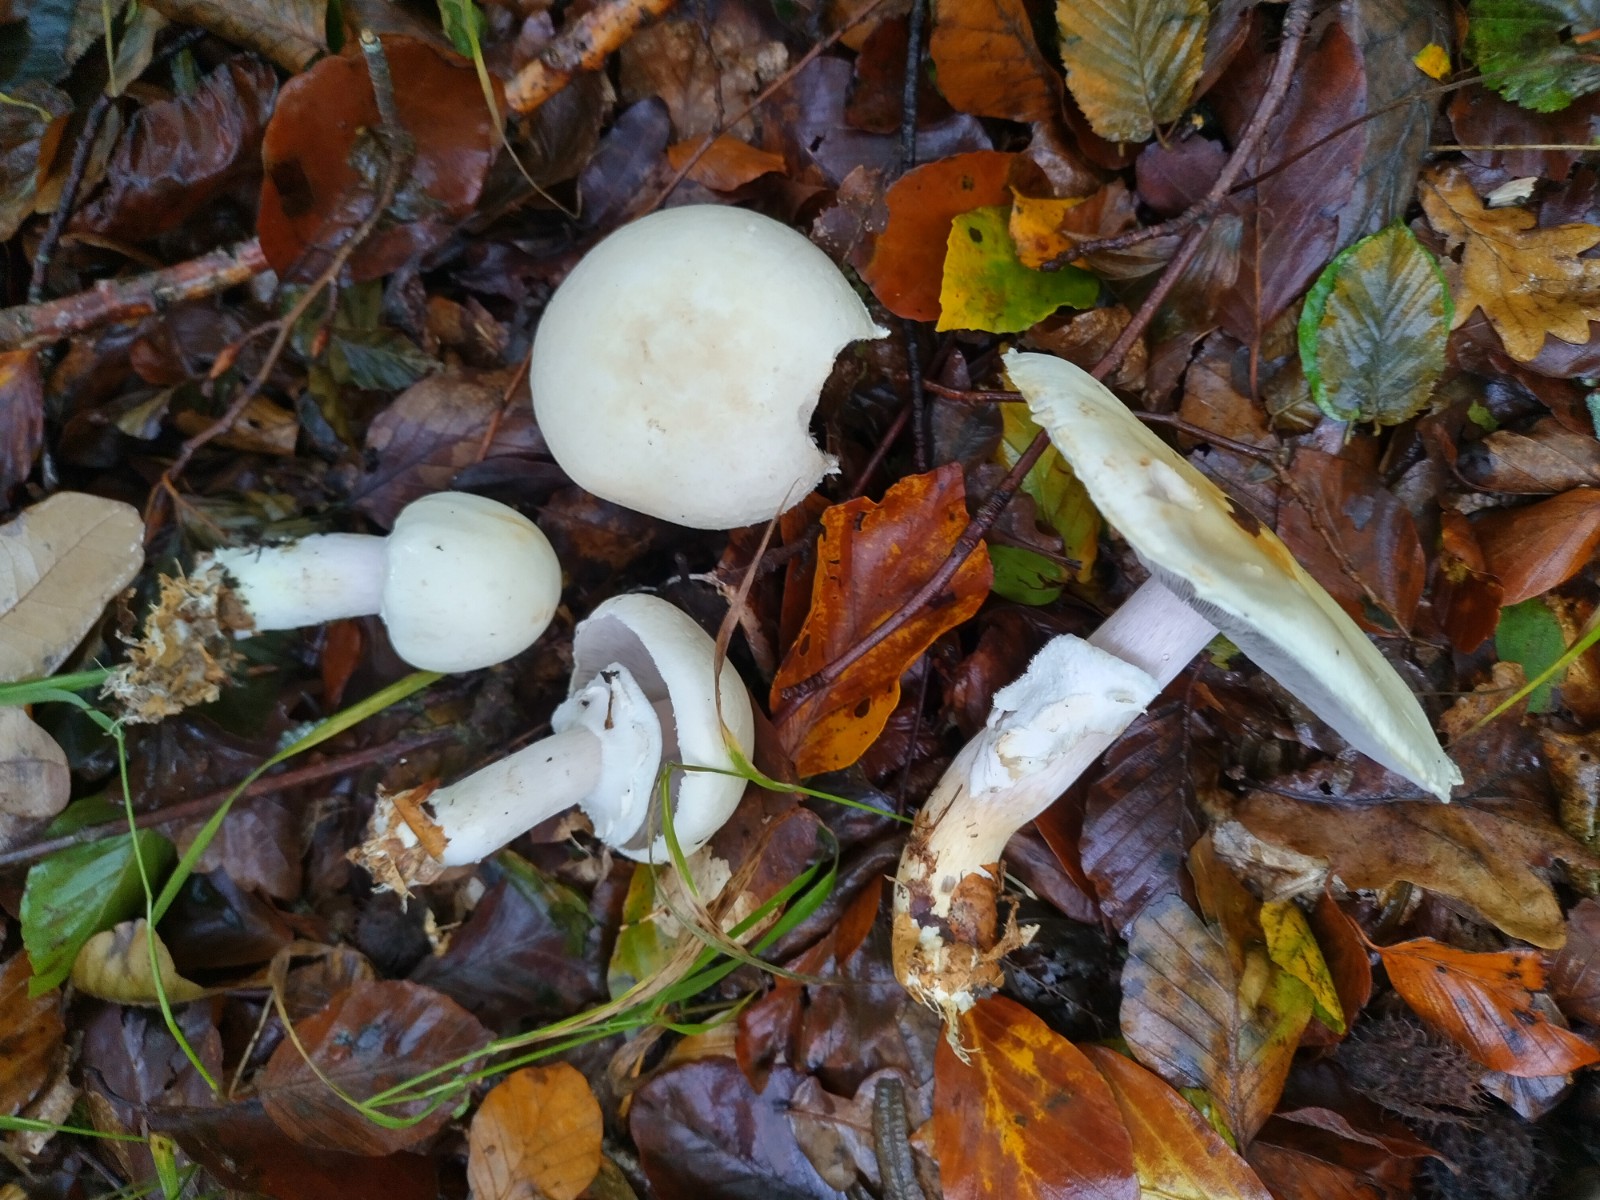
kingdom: Fungi
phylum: Basidiomycota
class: Agaricomycetes
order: Agaricales
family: Agaricaceae
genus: Agaricus
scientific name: Agaricus sylvicola
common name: gulhvid champignon
